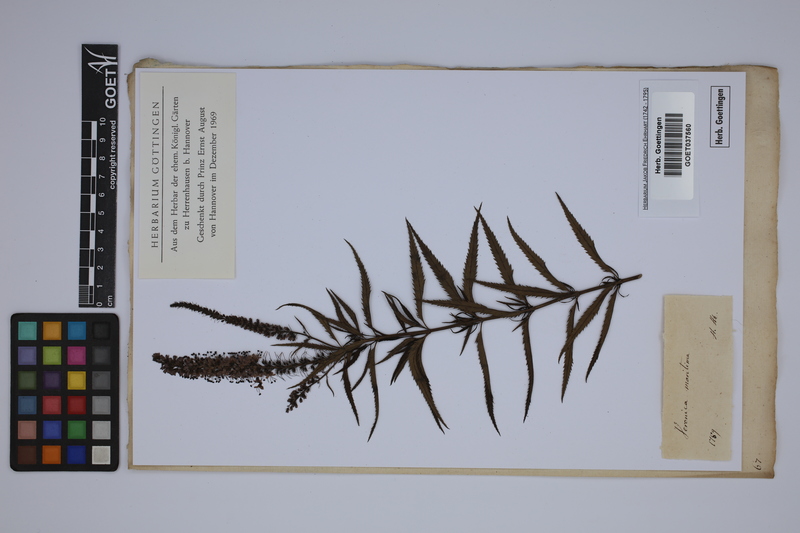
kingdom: Plantae
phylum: Tracheophyta
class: Magnoliopsida
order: Lamiales
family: Plantaginaceae
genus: Veronica
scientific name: Veronica maritima
